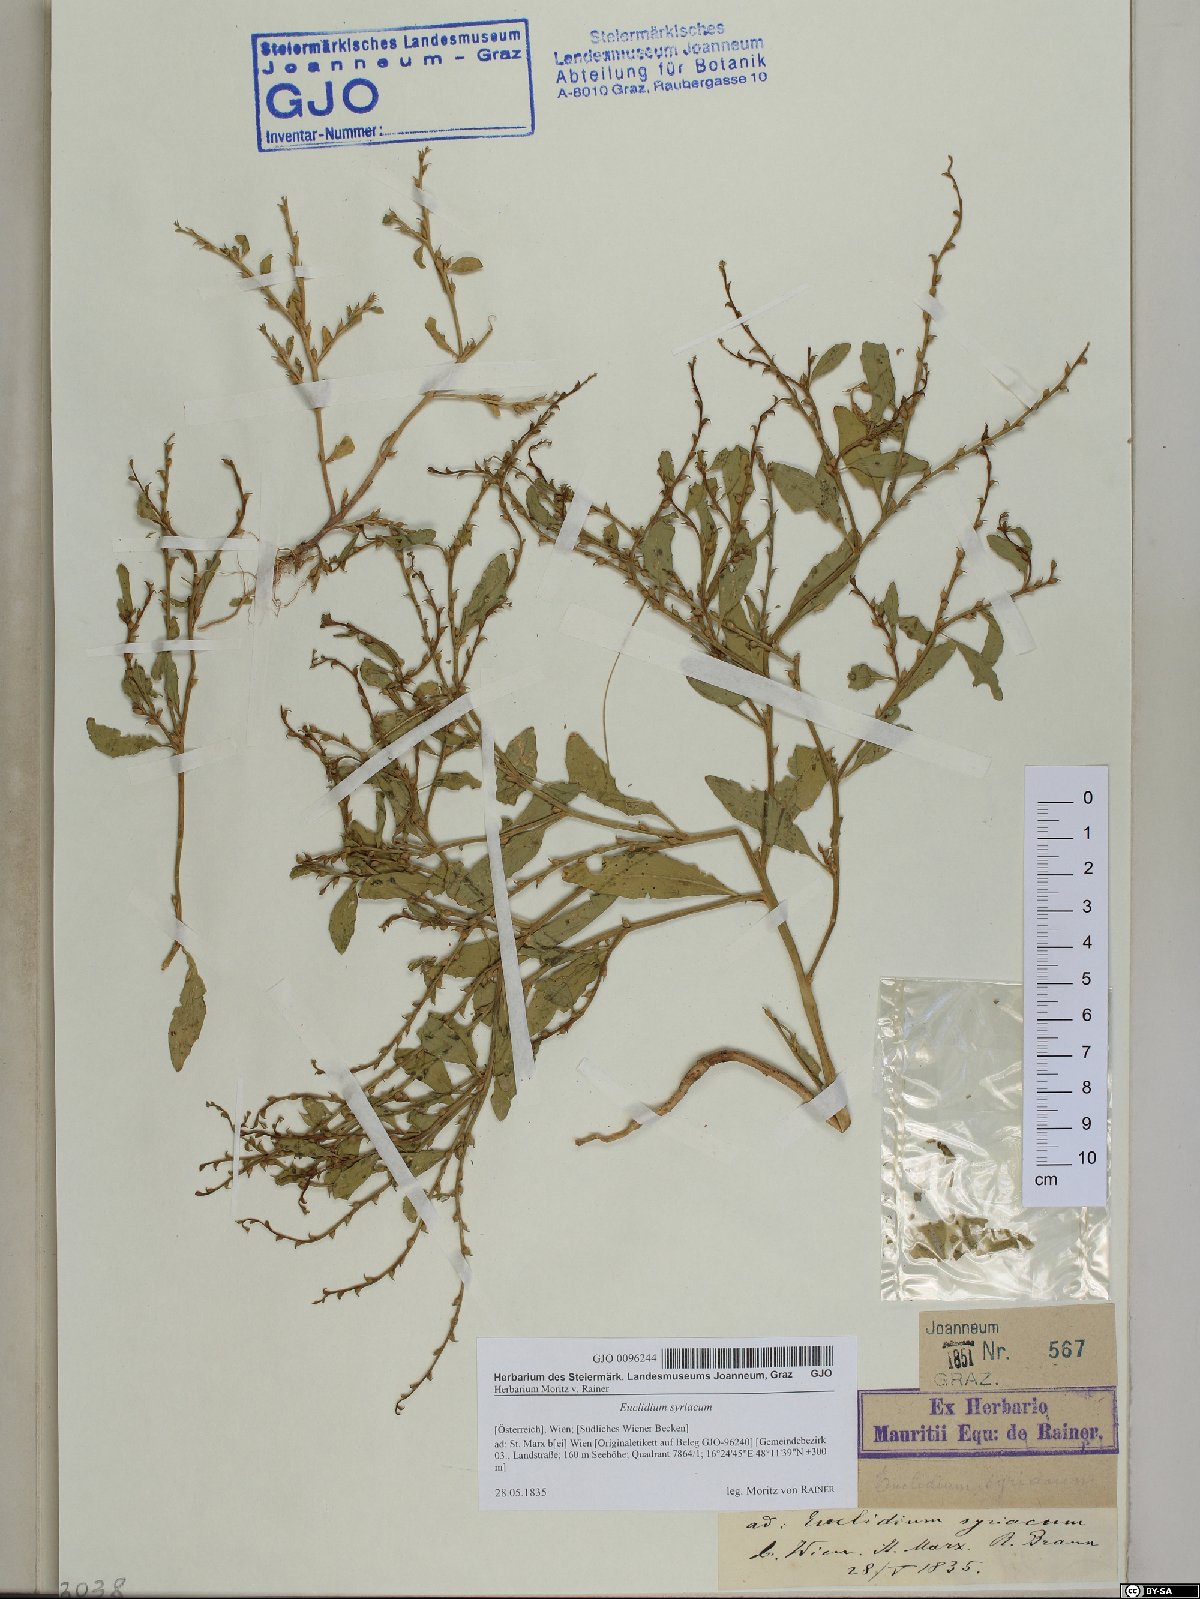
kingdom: Plantae
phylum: Tracheophyta
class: Magnoliopsida
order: Brassicales
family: Brassicaceae
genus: Euclidium
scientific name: Euclidium syriacum
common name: Syrian mustard
